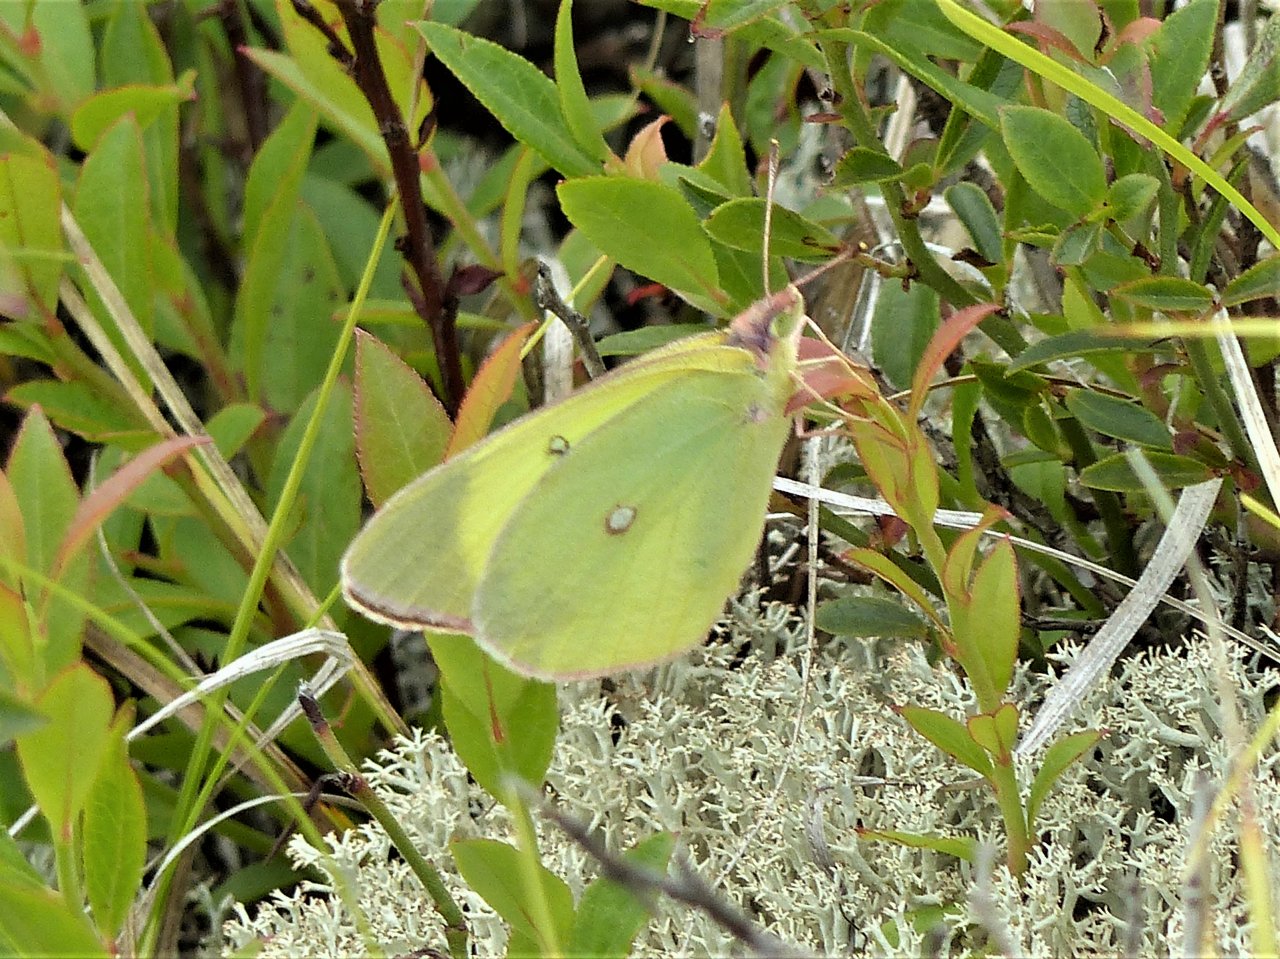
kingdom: Animalia
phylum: Arthropoda
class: Insecta
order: Lepidoptera
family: Pieridae
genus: Colias
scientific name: Colias interior
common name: Pink-edged Sulphur
